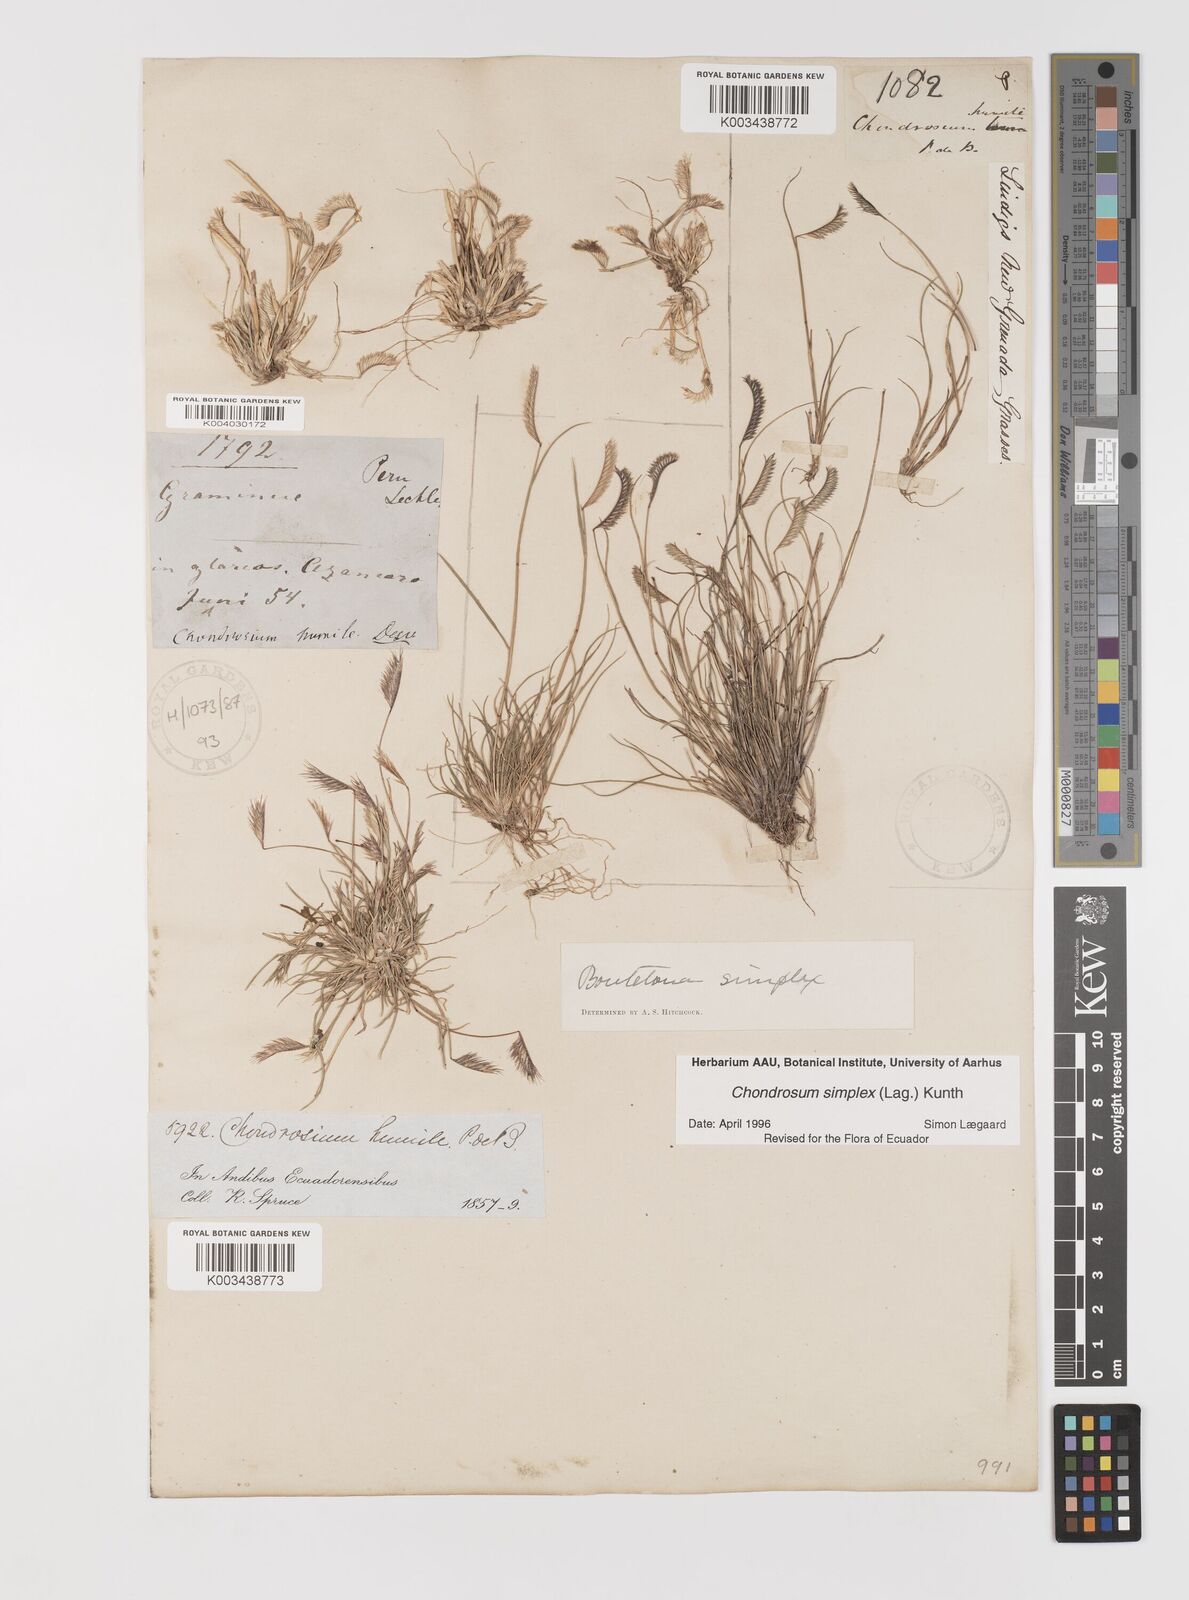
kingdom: Plantae
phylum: Tracheophyta
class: Liliopsida
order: Poales
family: Poaceae
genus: Bouteloua
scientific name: Bouteloua simplex
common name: Mat grama
